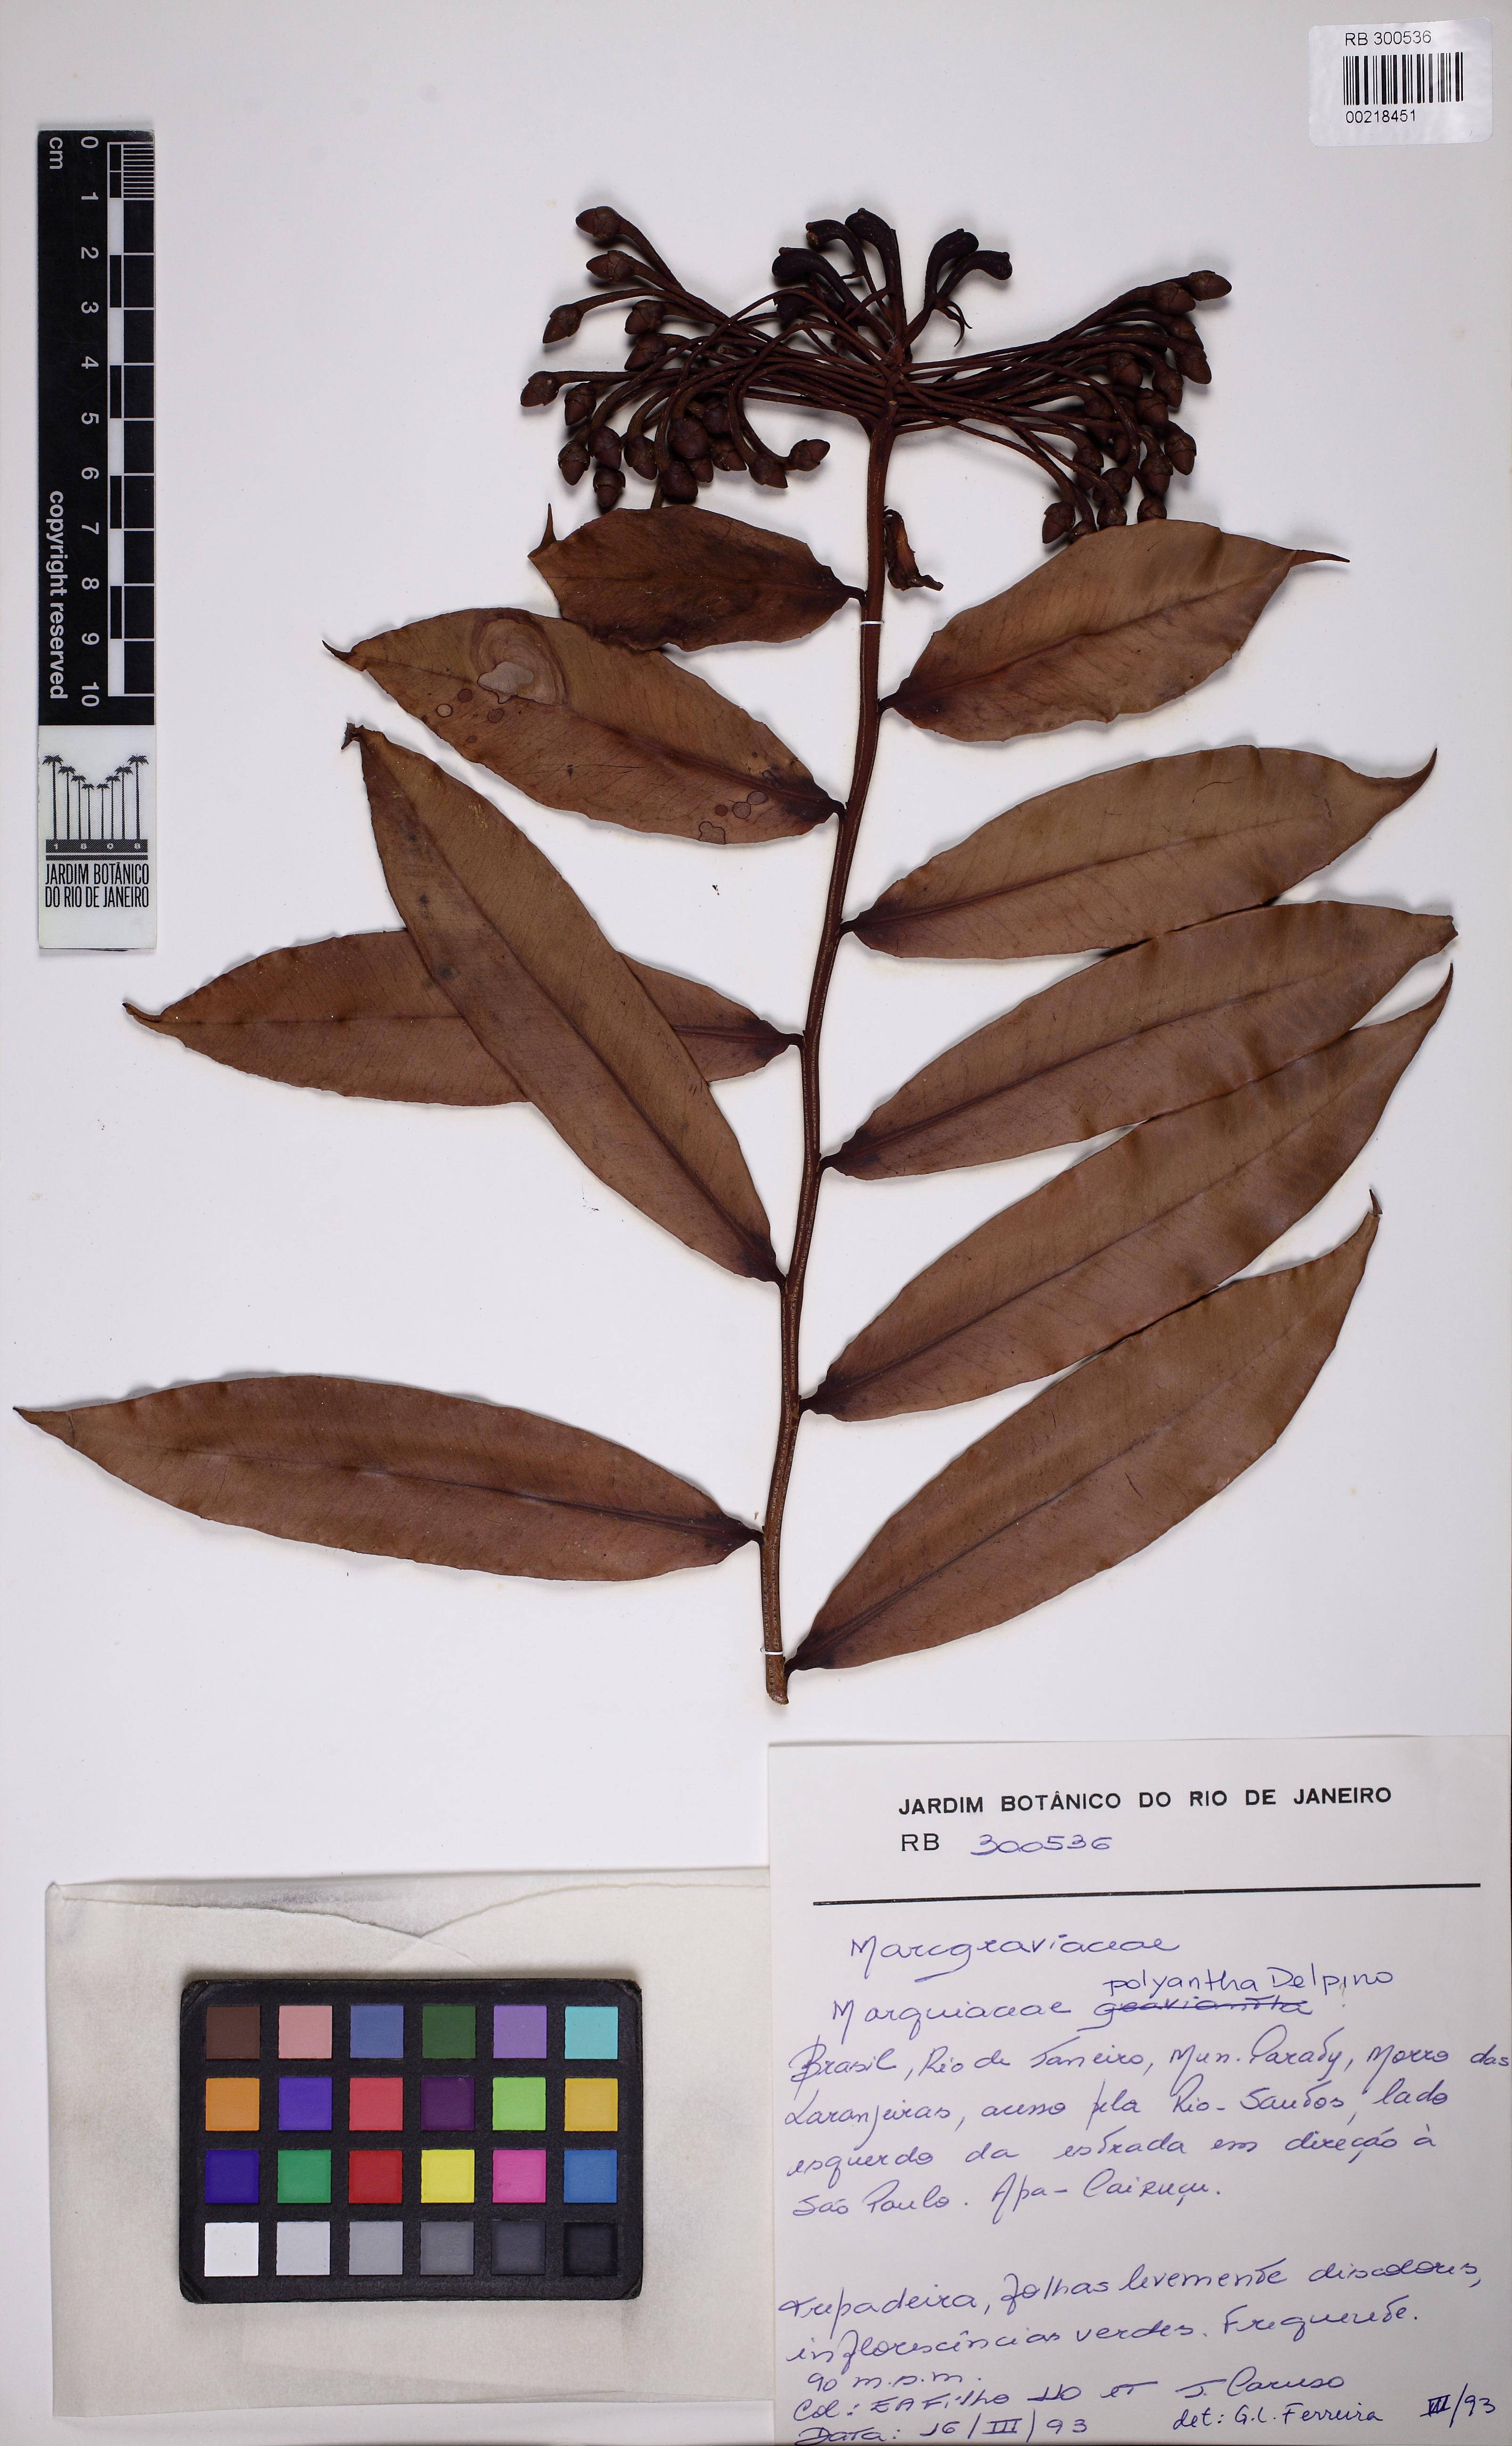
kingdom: Plantae
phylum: Tracheophyta
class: Magnoliopsida
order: Ericales
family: Marcgraviaceae
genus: Marcgravia
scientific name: Marcgravia polyantha
